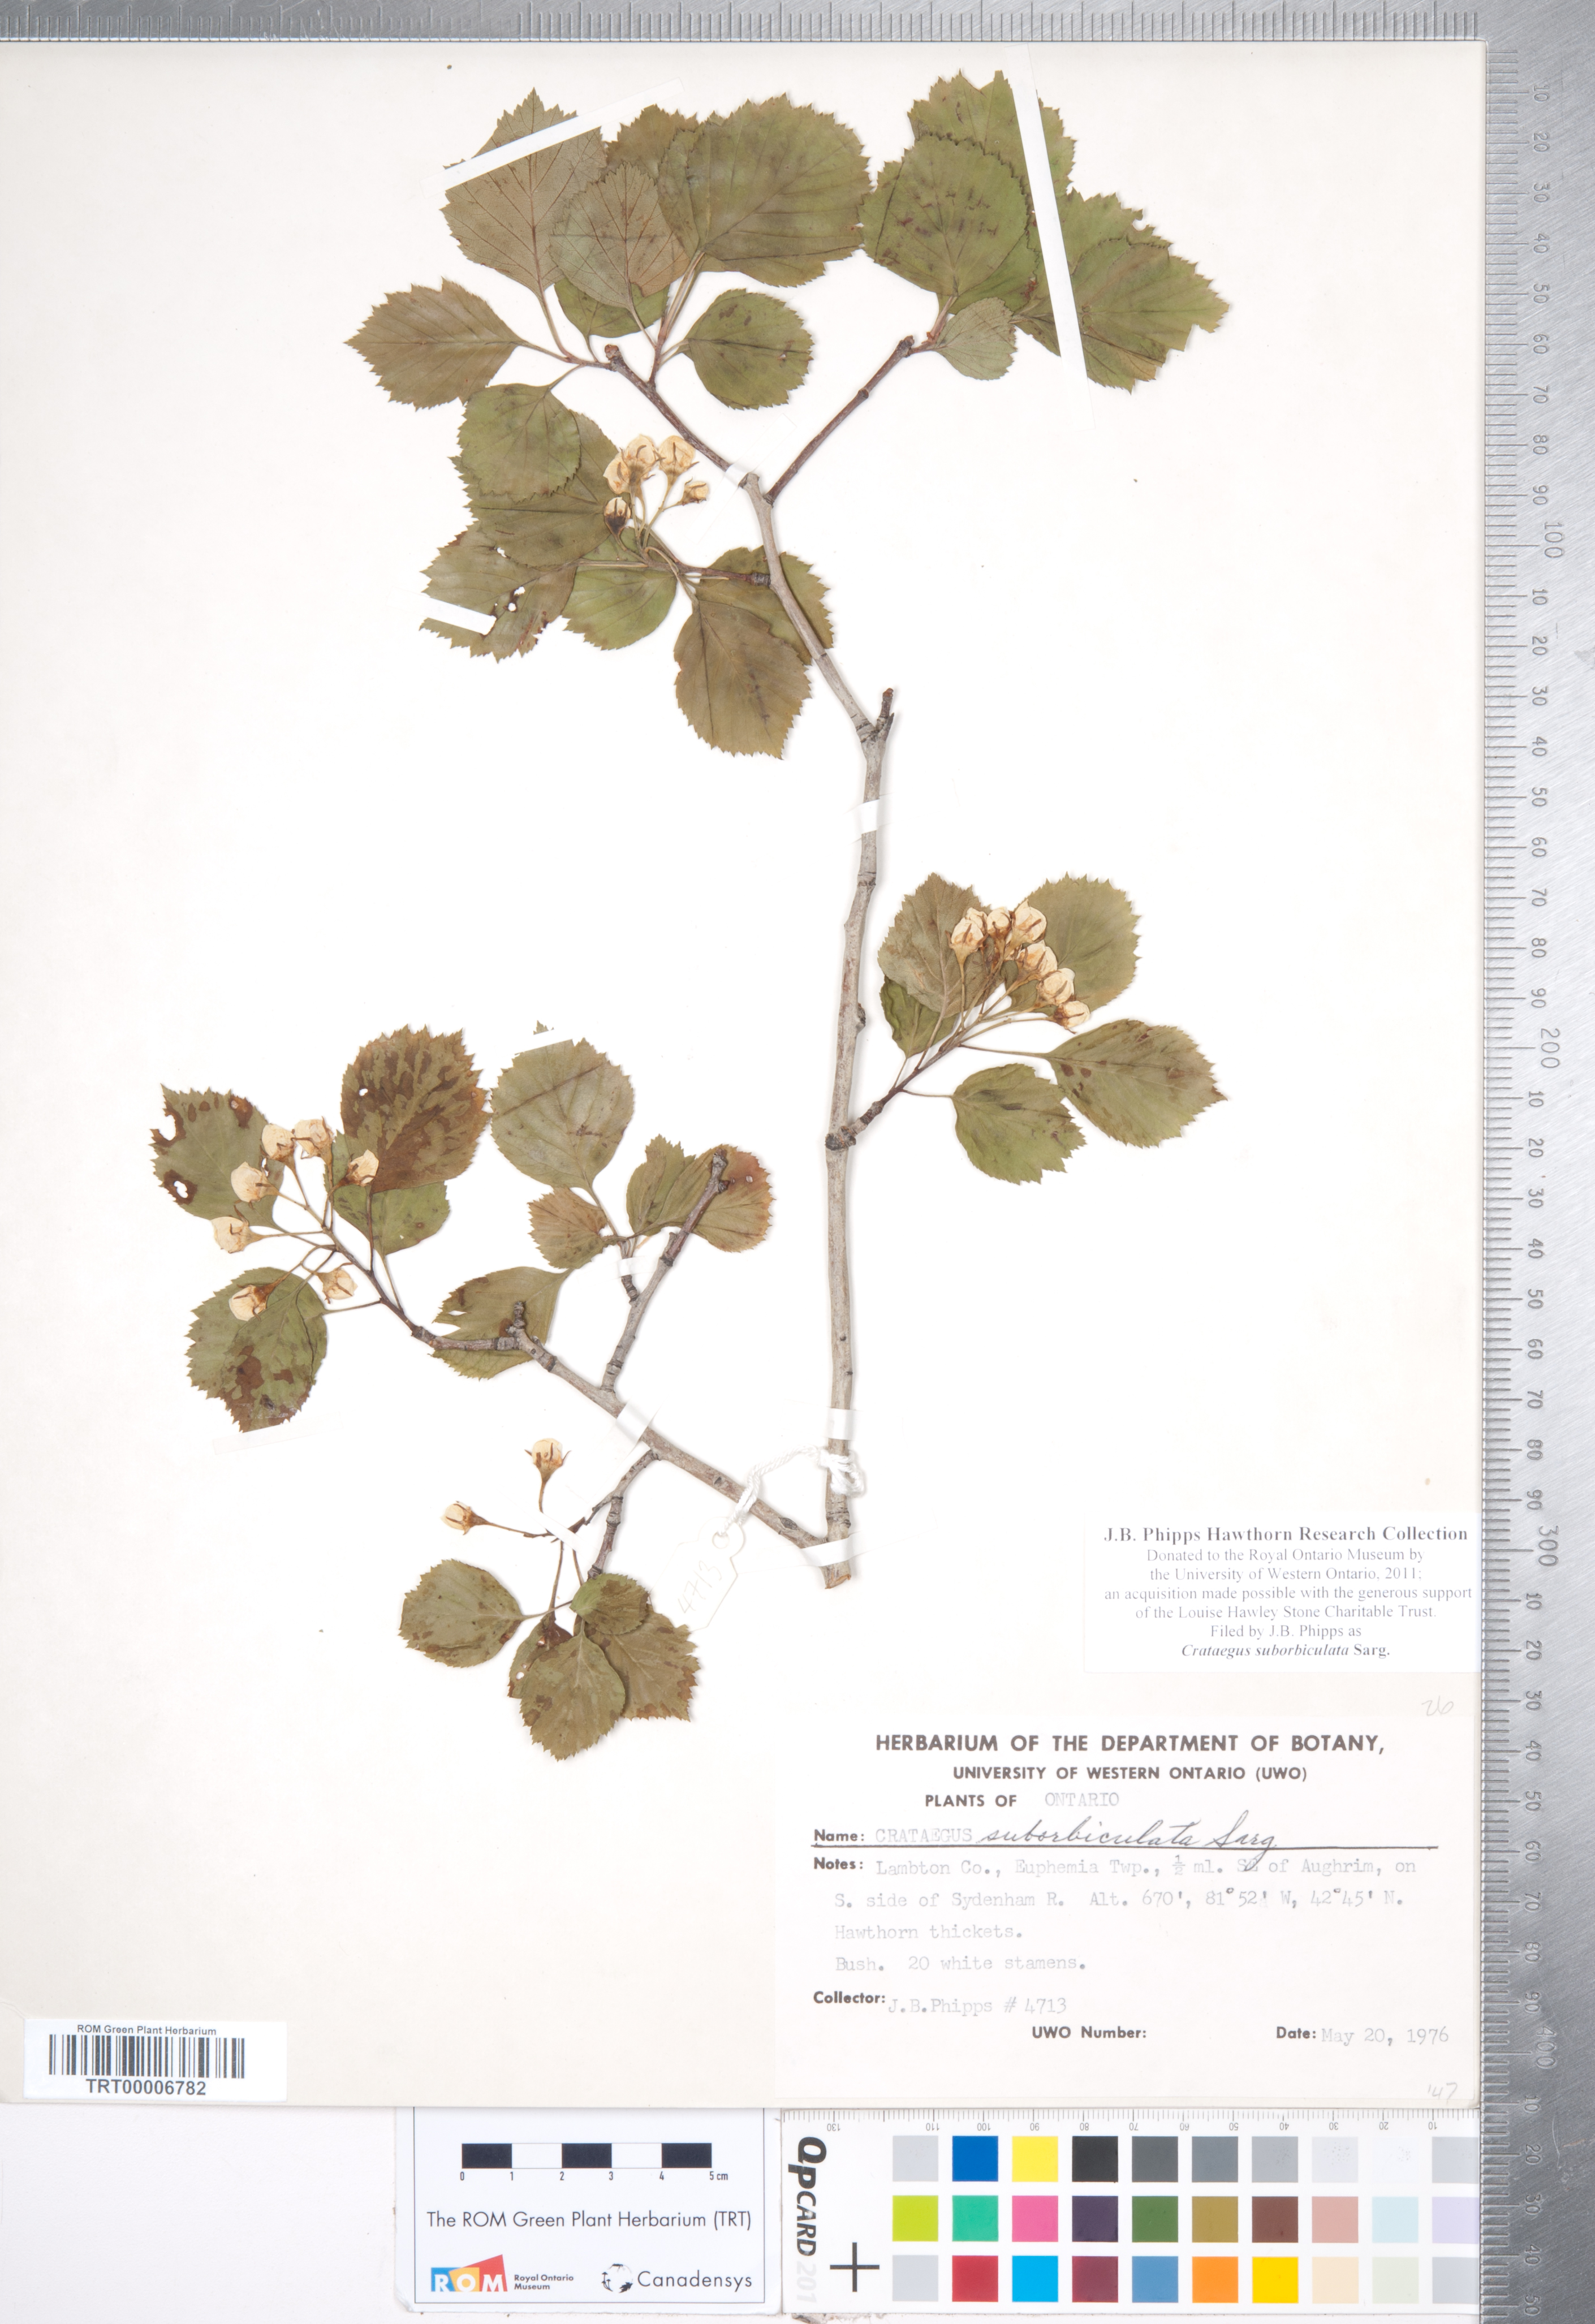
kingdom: Plantae
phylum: Tracheophyta
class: Magnoliopsida
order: Rosales
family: Rosaceae
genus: Crataegus
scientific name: Crataegus suborbiculata
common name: Caughnawaga hawthorn
